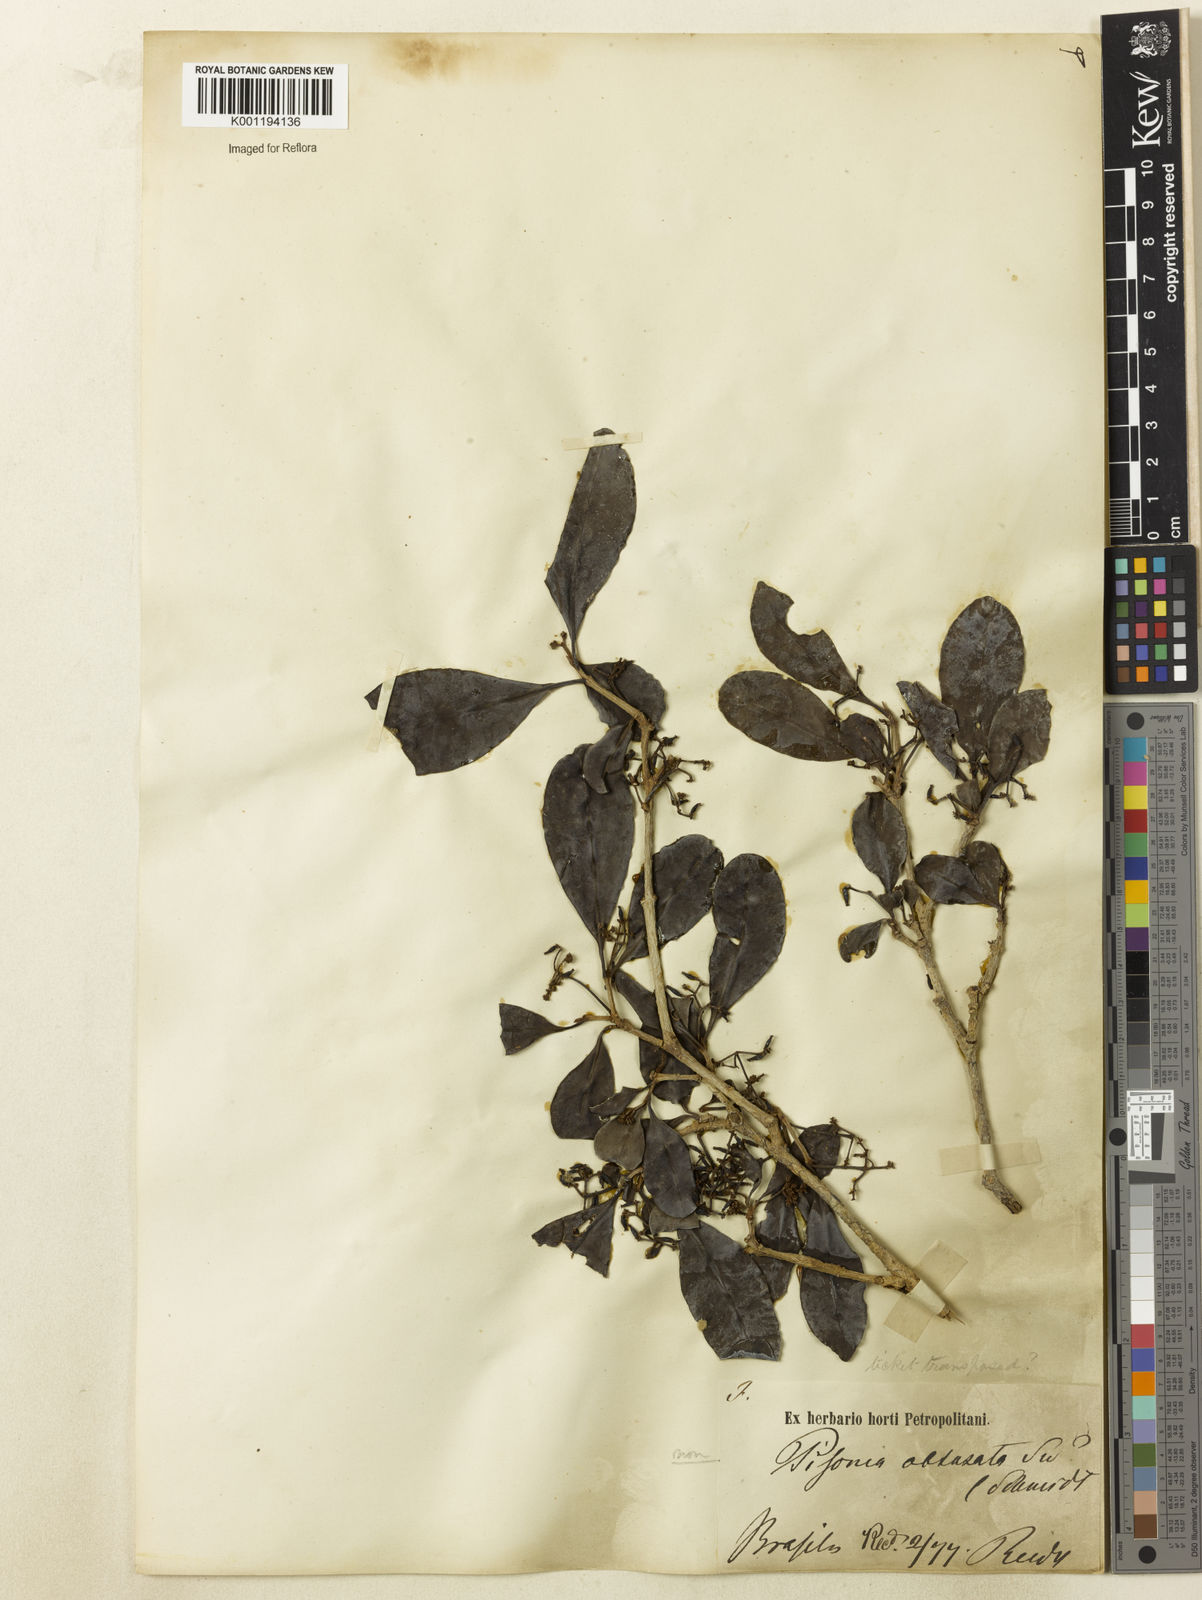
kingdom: Plantae
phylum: Tracheophyta
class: Magnoliopsida
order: Caryophyllales
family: Nyctaginaceae
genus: Guapira
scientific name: Guapira
